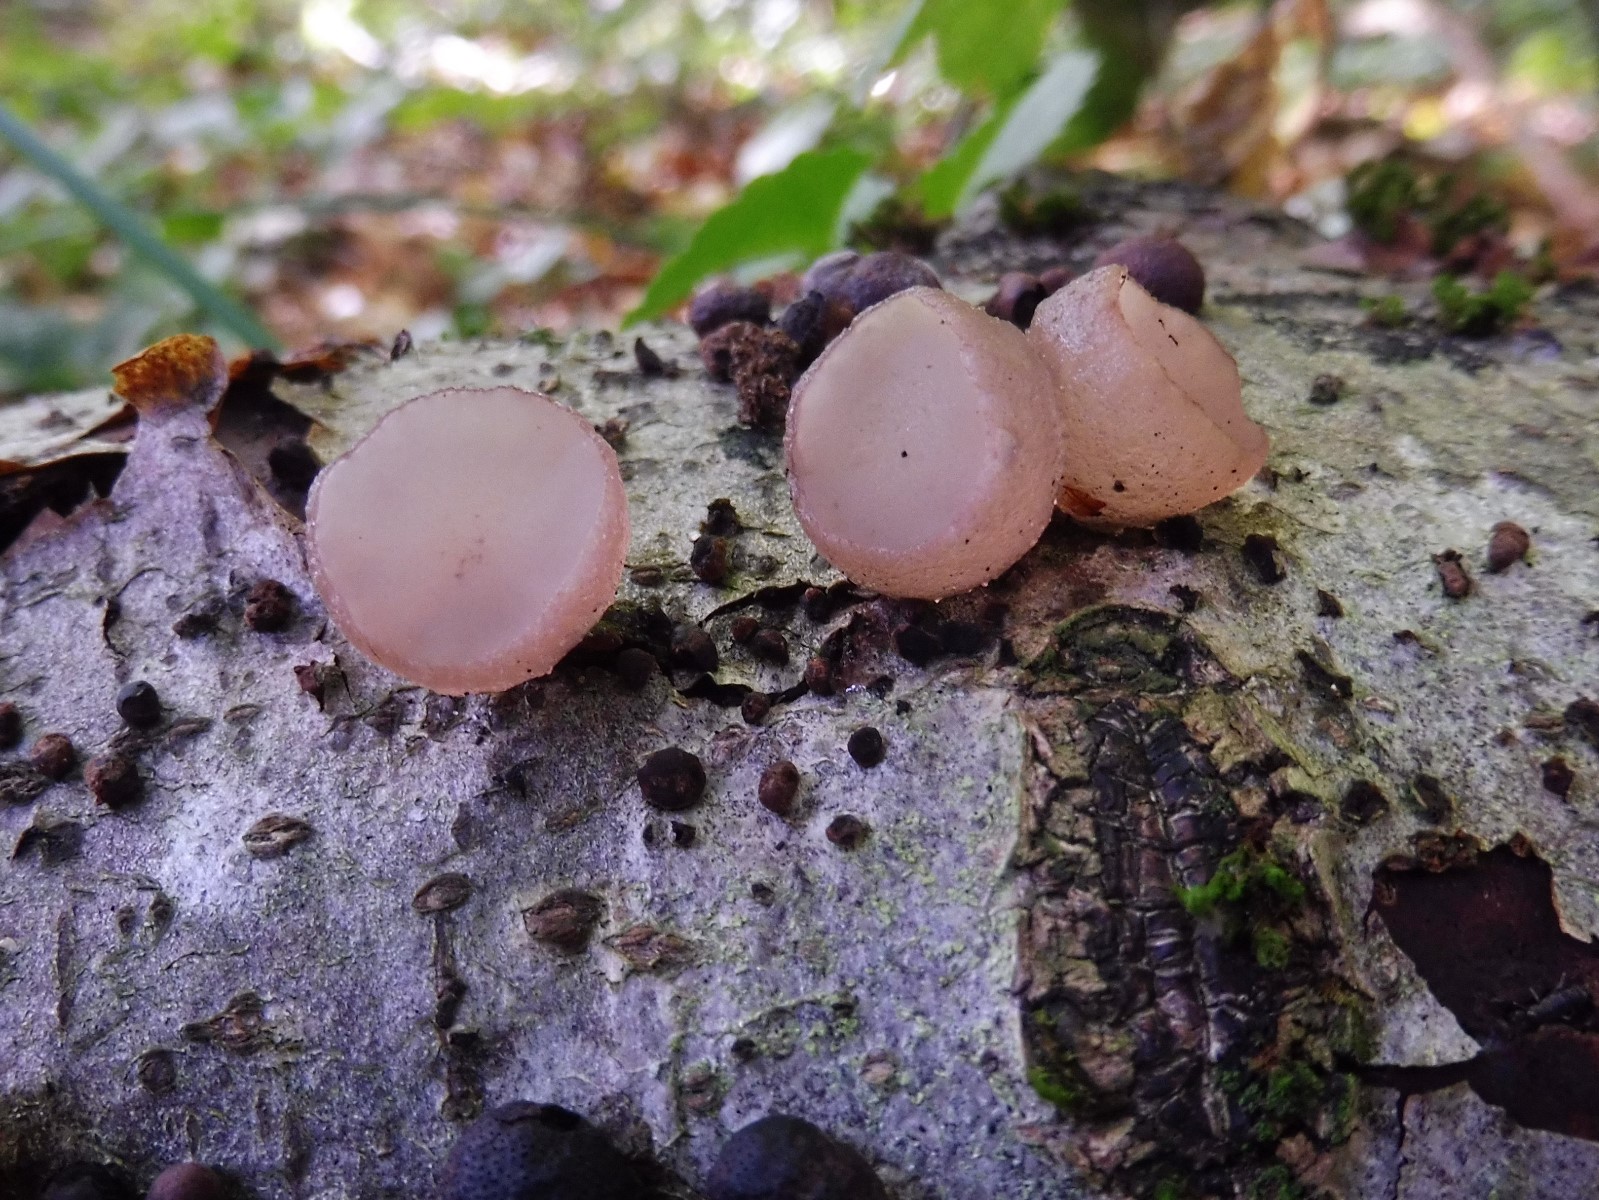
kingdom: Fungi
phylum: Ascomycota
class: Leotiomycetes
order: Helotiales
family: Gelatinodiscaceae
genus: Neobulgaria
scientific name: Neobulgaria pura
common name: bleg bævreskive
